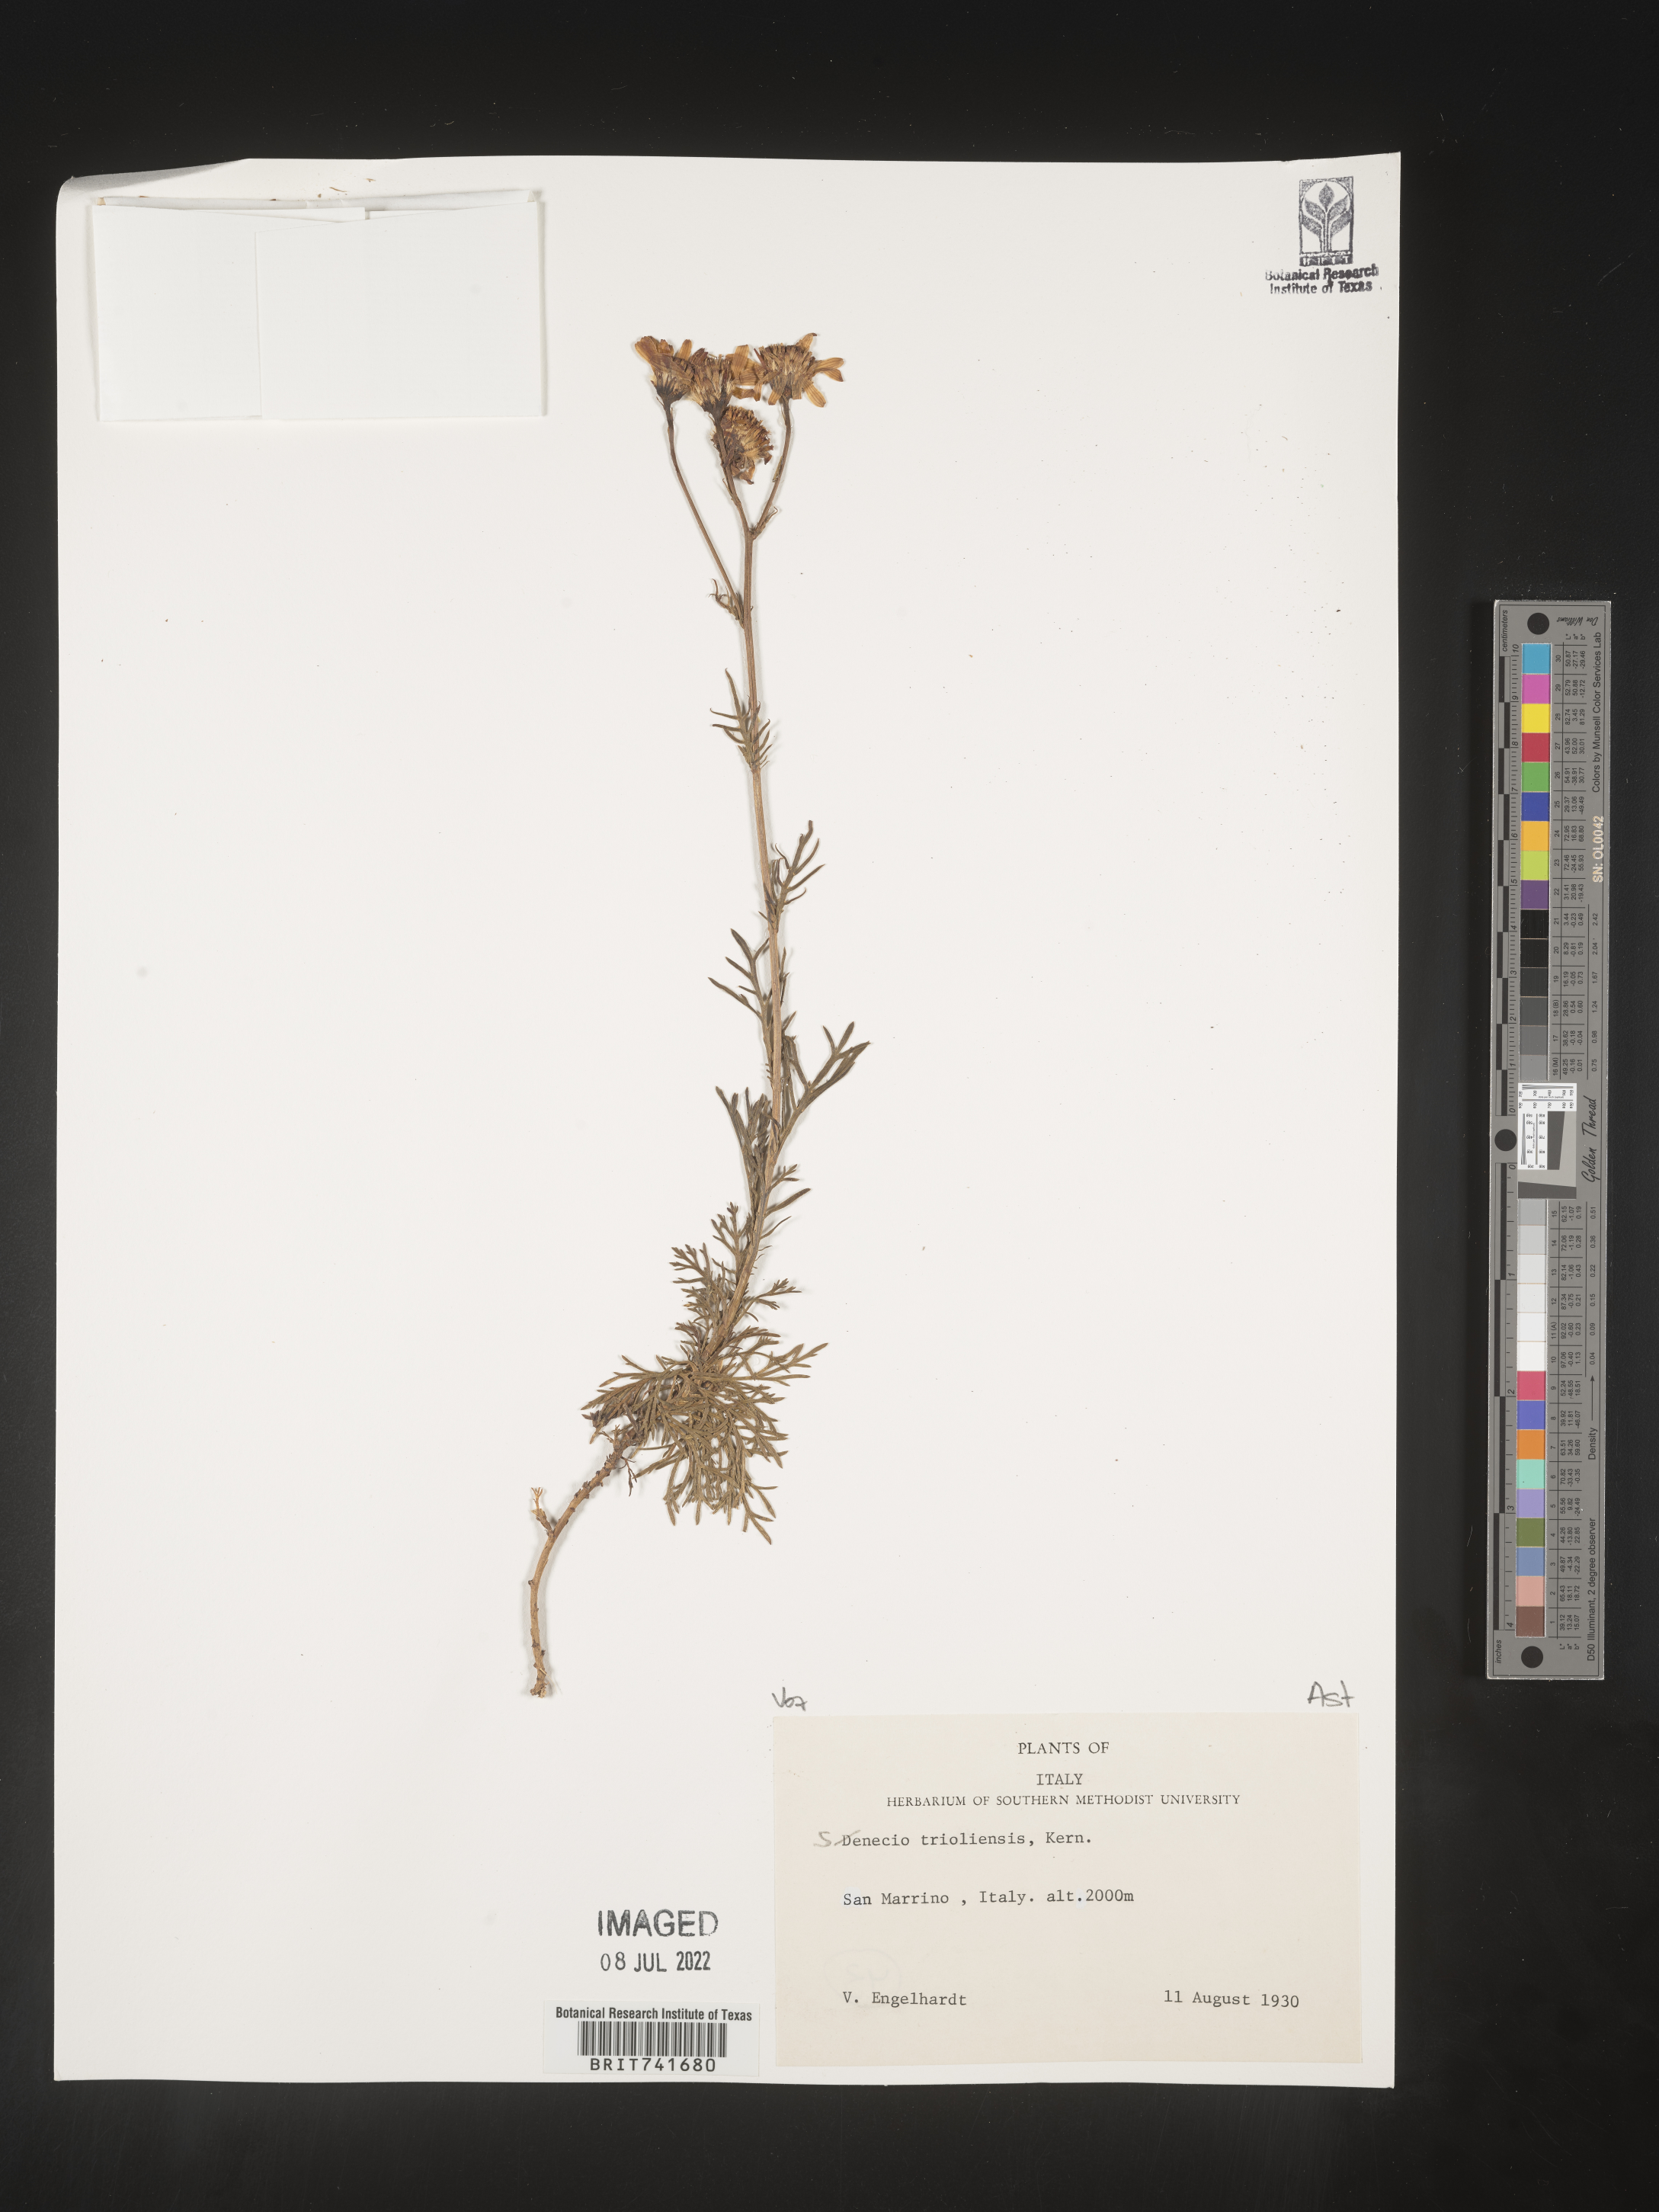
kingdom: Plantae
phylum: Tracheophyta
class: Magnoliopsida
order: Asterales
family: Asteraceae
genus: Senecio
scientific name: Senecio
